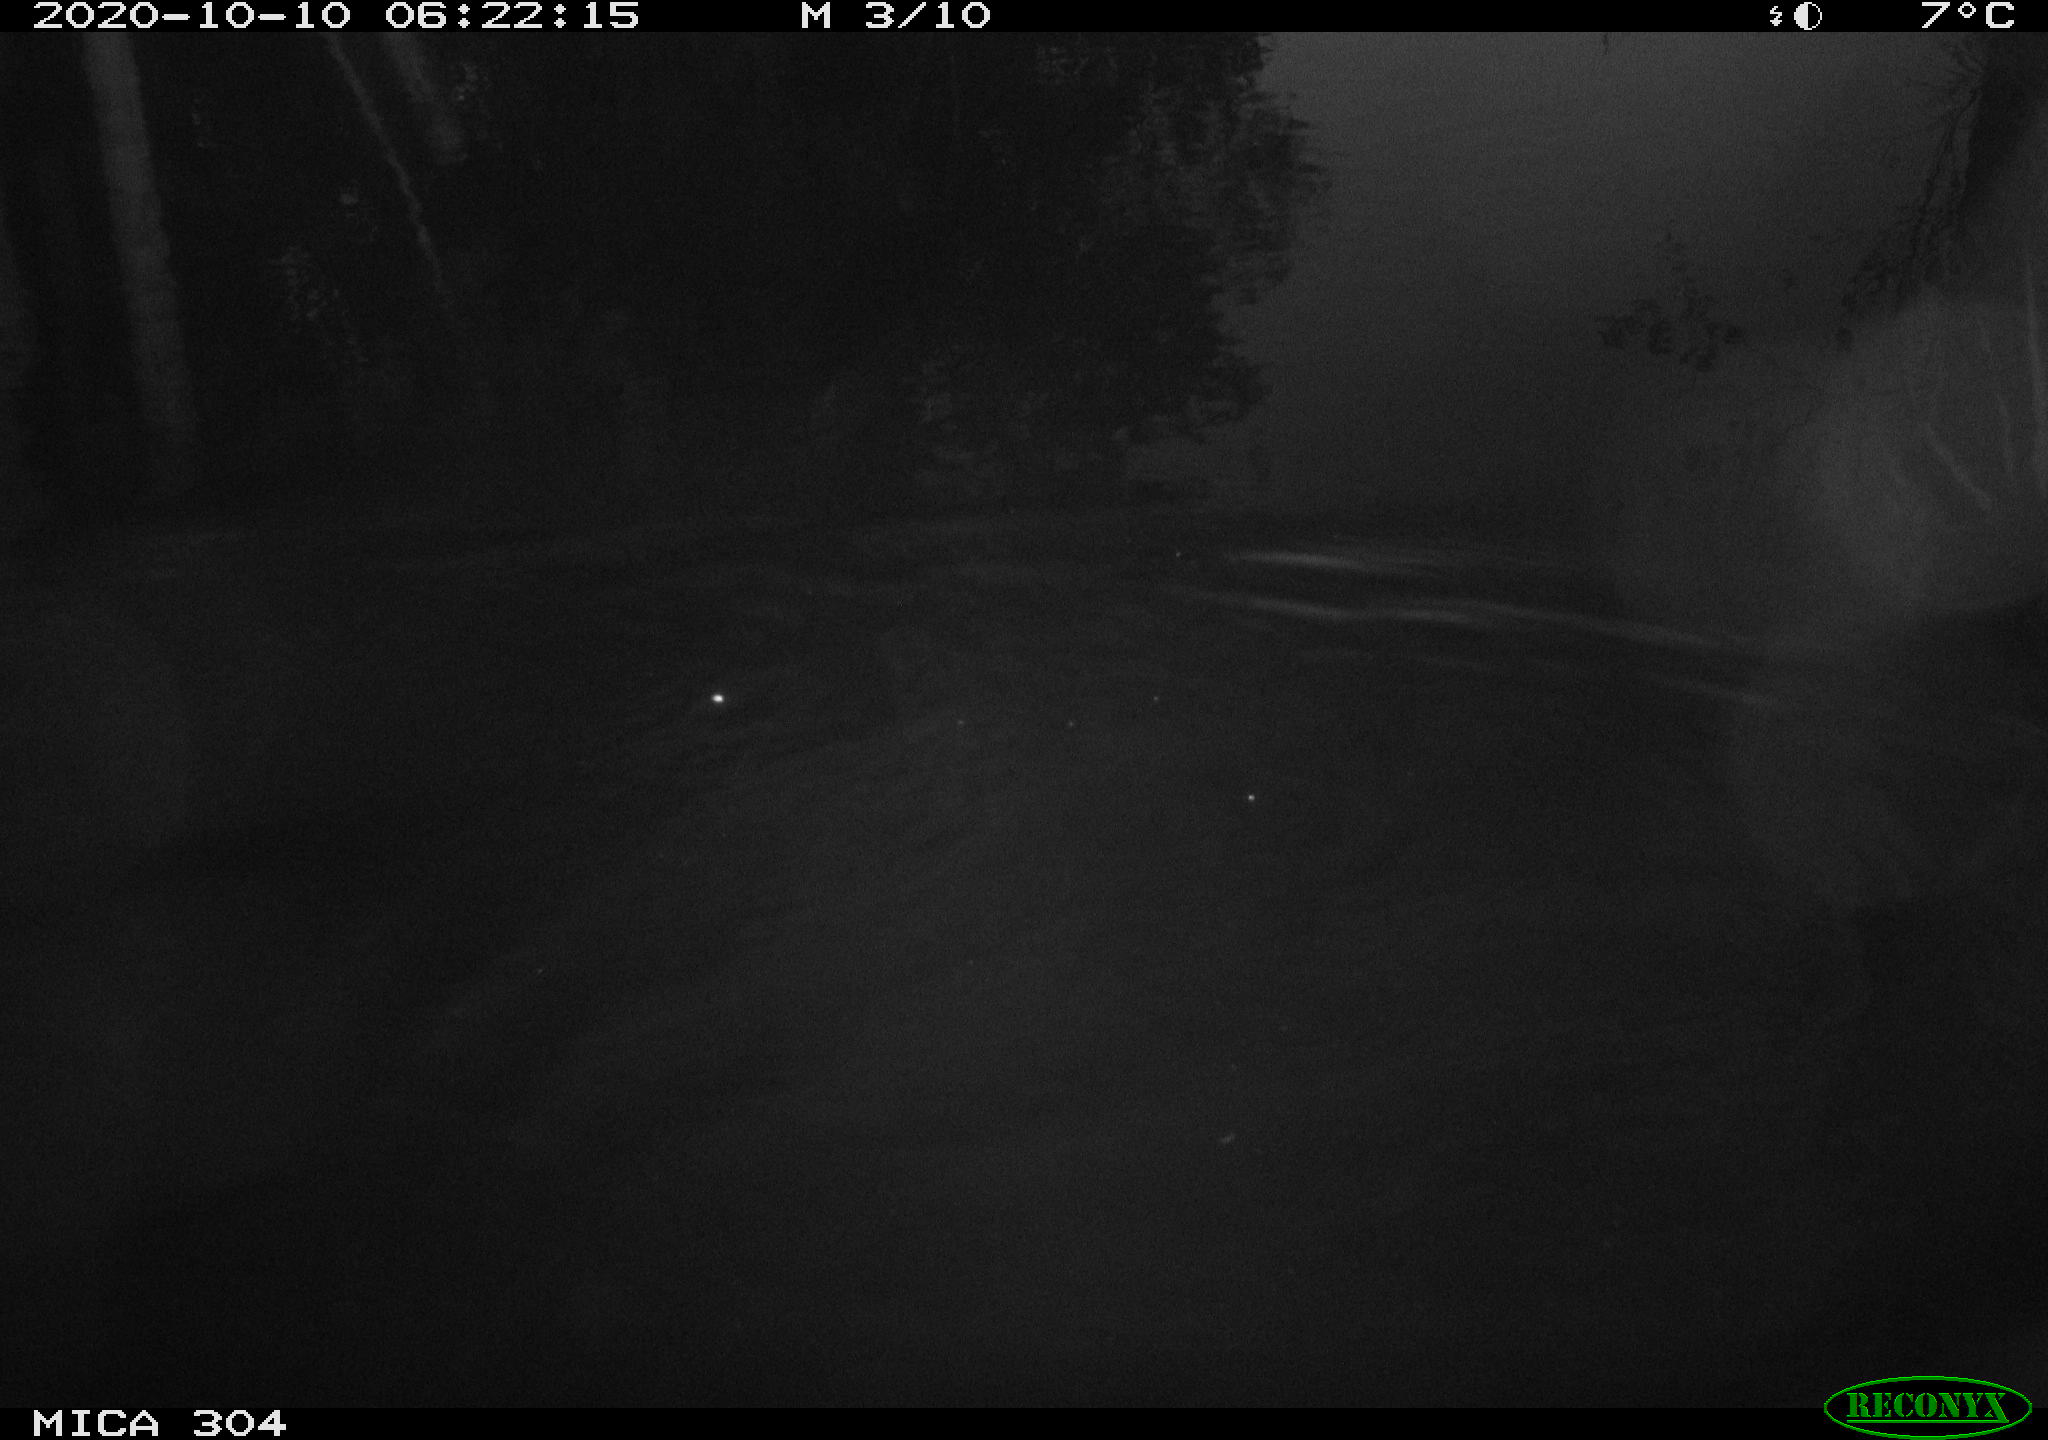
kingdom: Animalia
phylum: Chordata
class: Mammalia
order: Rodentia
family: Muridae
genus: Rattus
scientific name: Rattus norvegicus
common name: Brown rat
